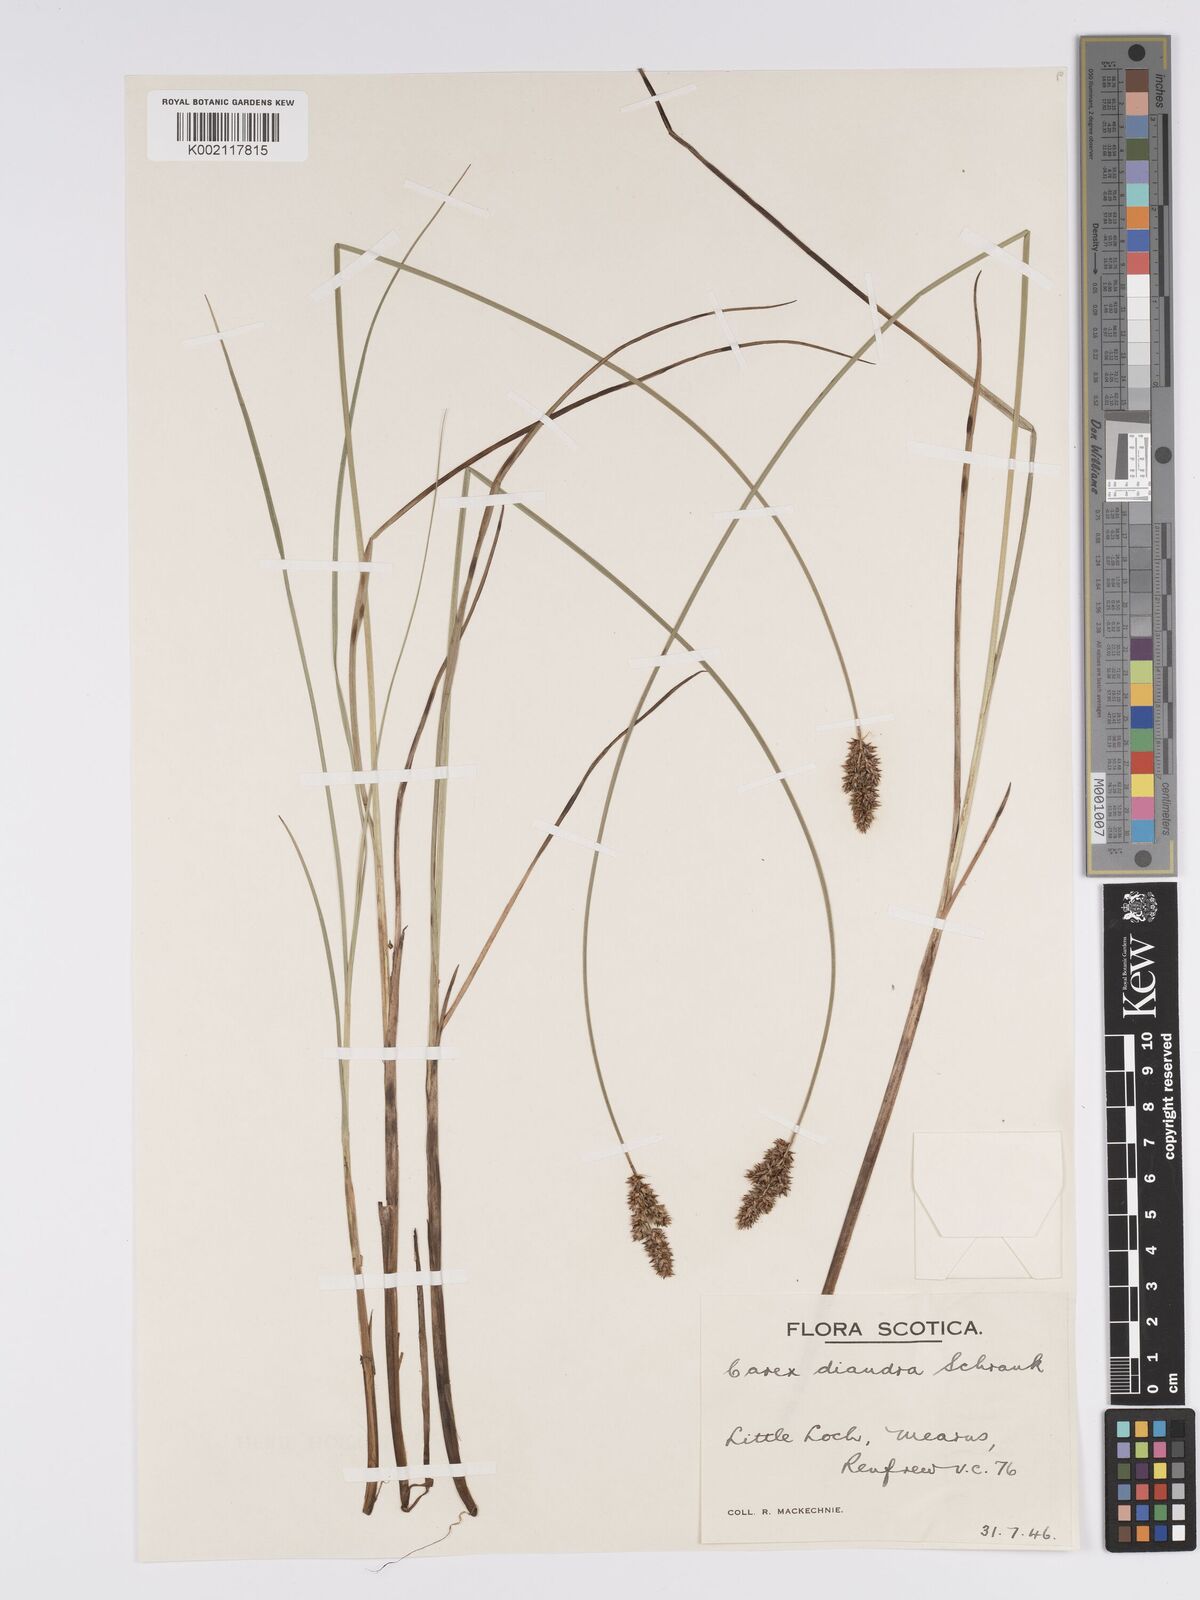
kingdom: Plantae
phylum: Tracheophyta
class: Liliopsida
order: Poales
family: Cyperaceae
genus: Carex
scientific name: Carex diandra
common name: Lesser tussock-sedge
